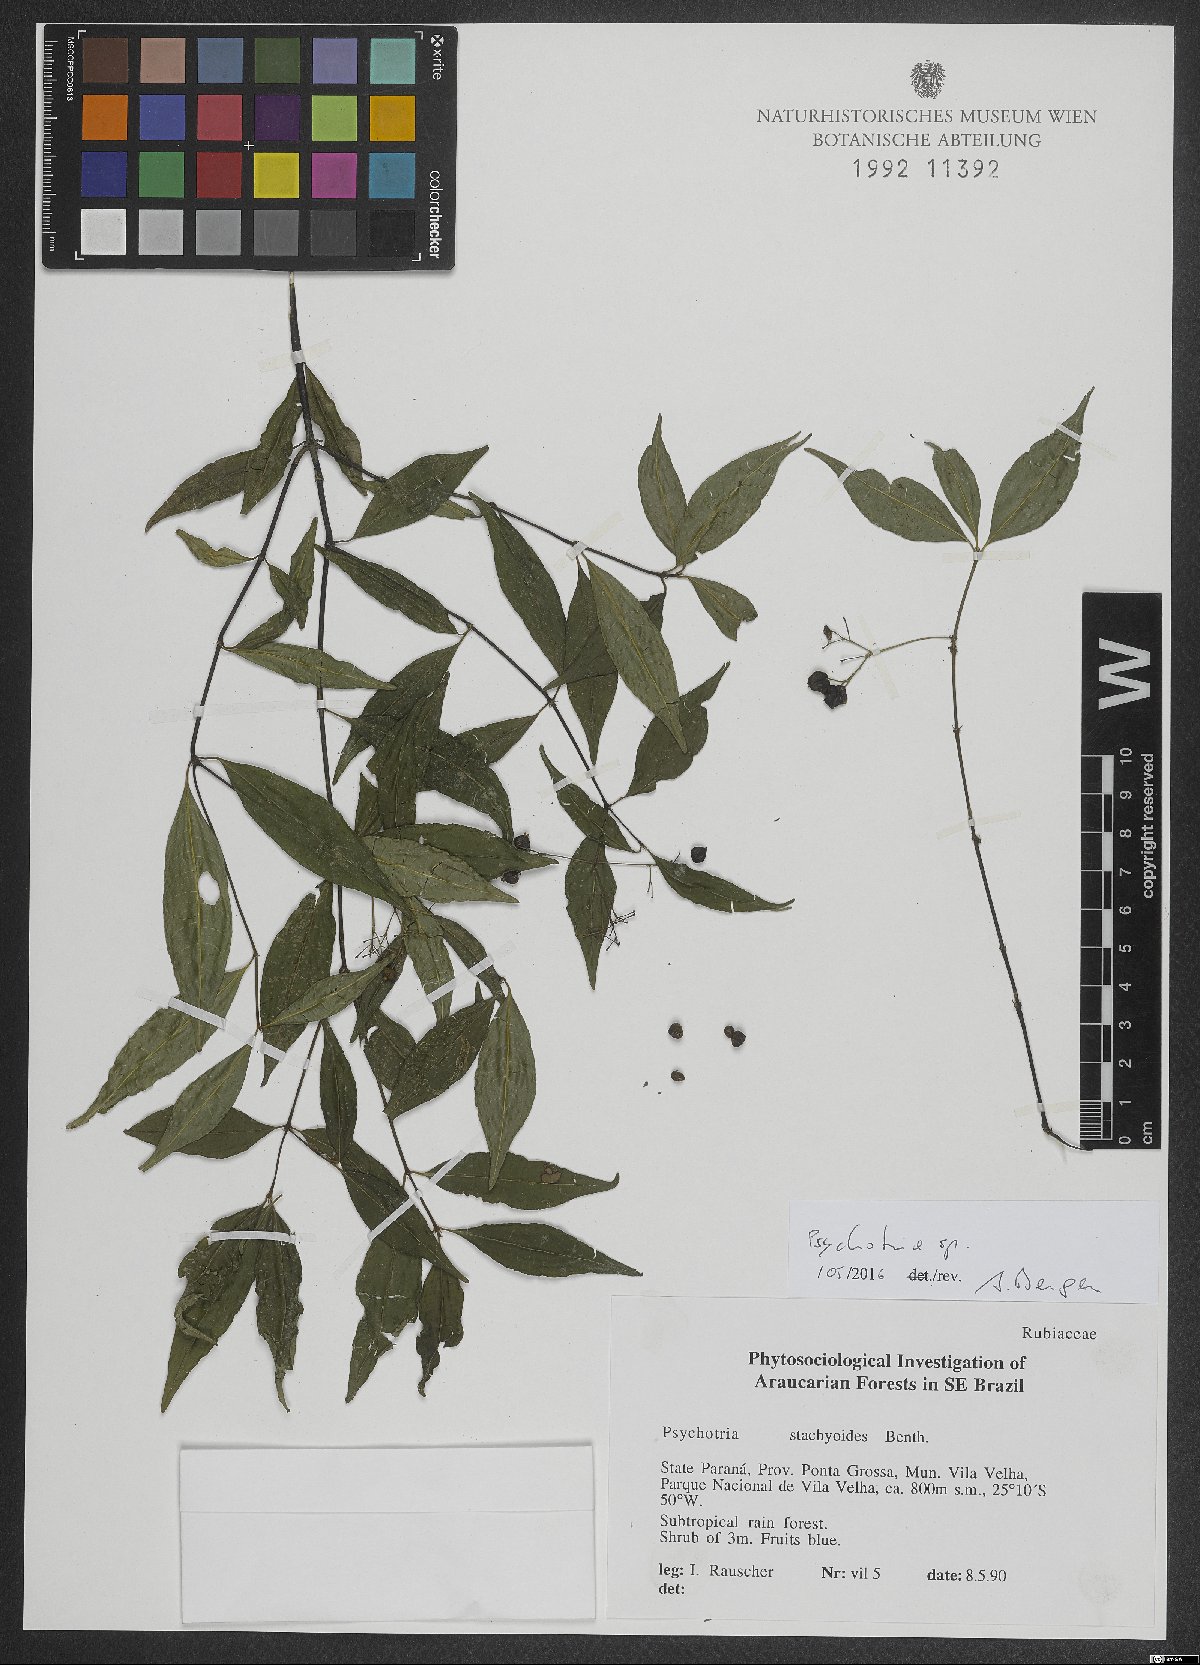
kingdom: Plantae
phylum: Tracheophyta
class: Magnoliopsida
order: Gentianales
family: Rubiaceae
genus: Psychotria
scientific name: Psychotria leiocarpa
